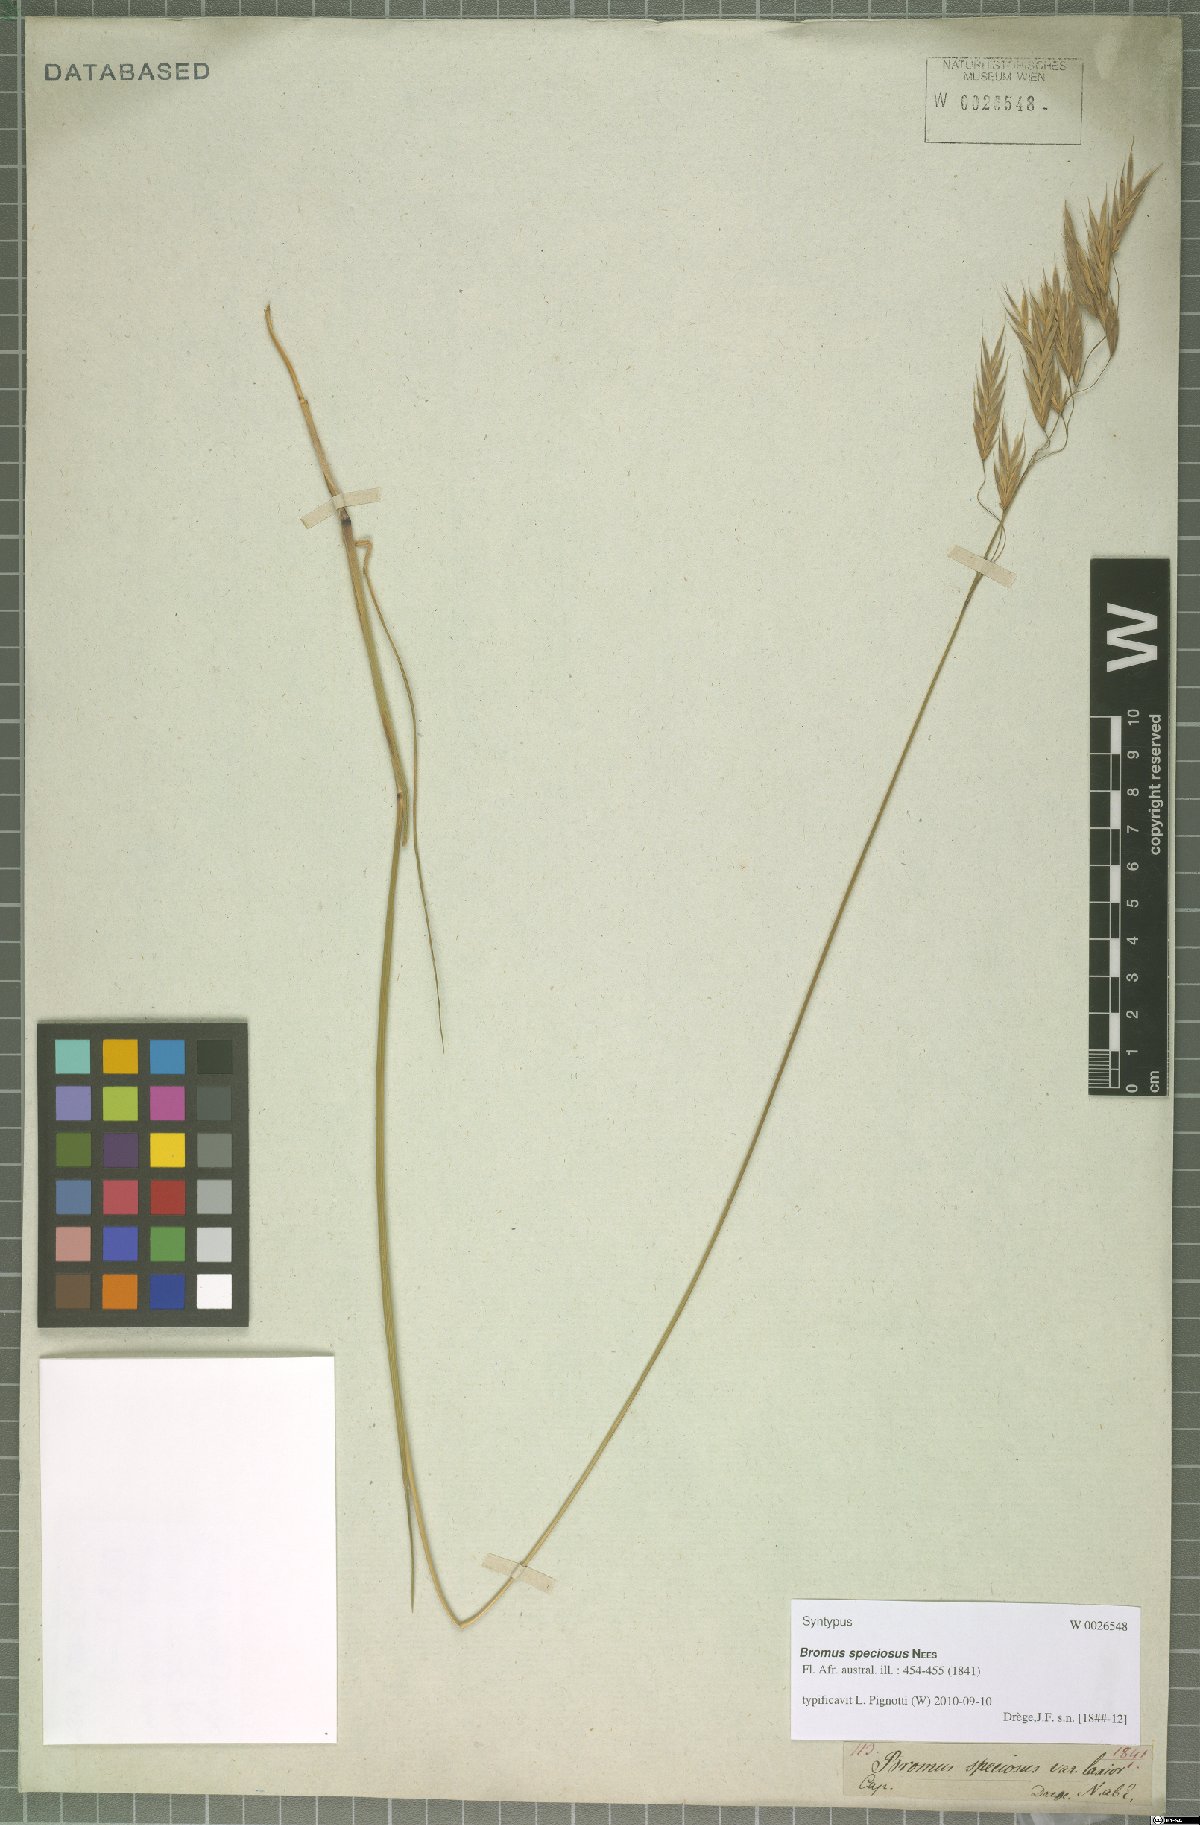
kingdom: Plantae
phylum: Tracheophyta
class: Liliopsida
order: Poales
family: Poaceae
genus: Bromus
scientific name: Bromus speciosus
